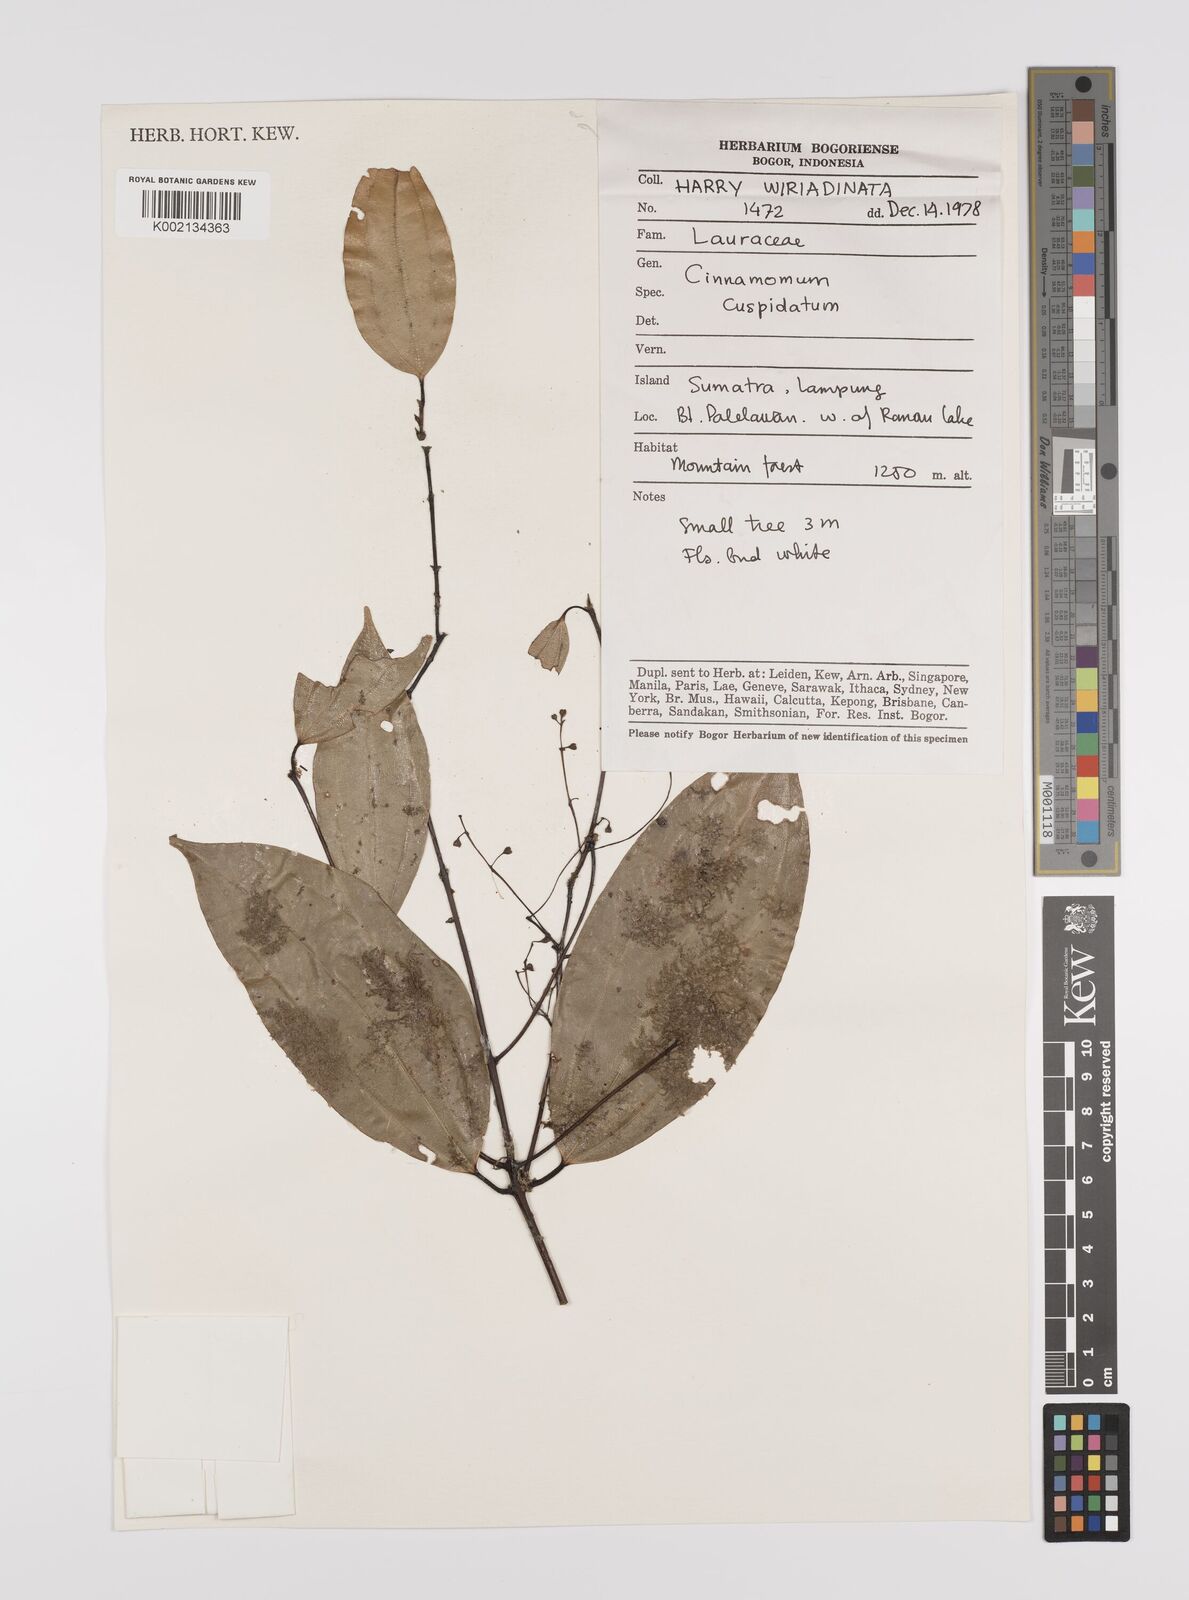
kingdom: Plantae
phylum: Tracheophyta
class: Magnoliopsida
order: Laurales
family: Lauraceae
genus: Cinnamomum
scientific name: Cinnamomum cuspidatum
